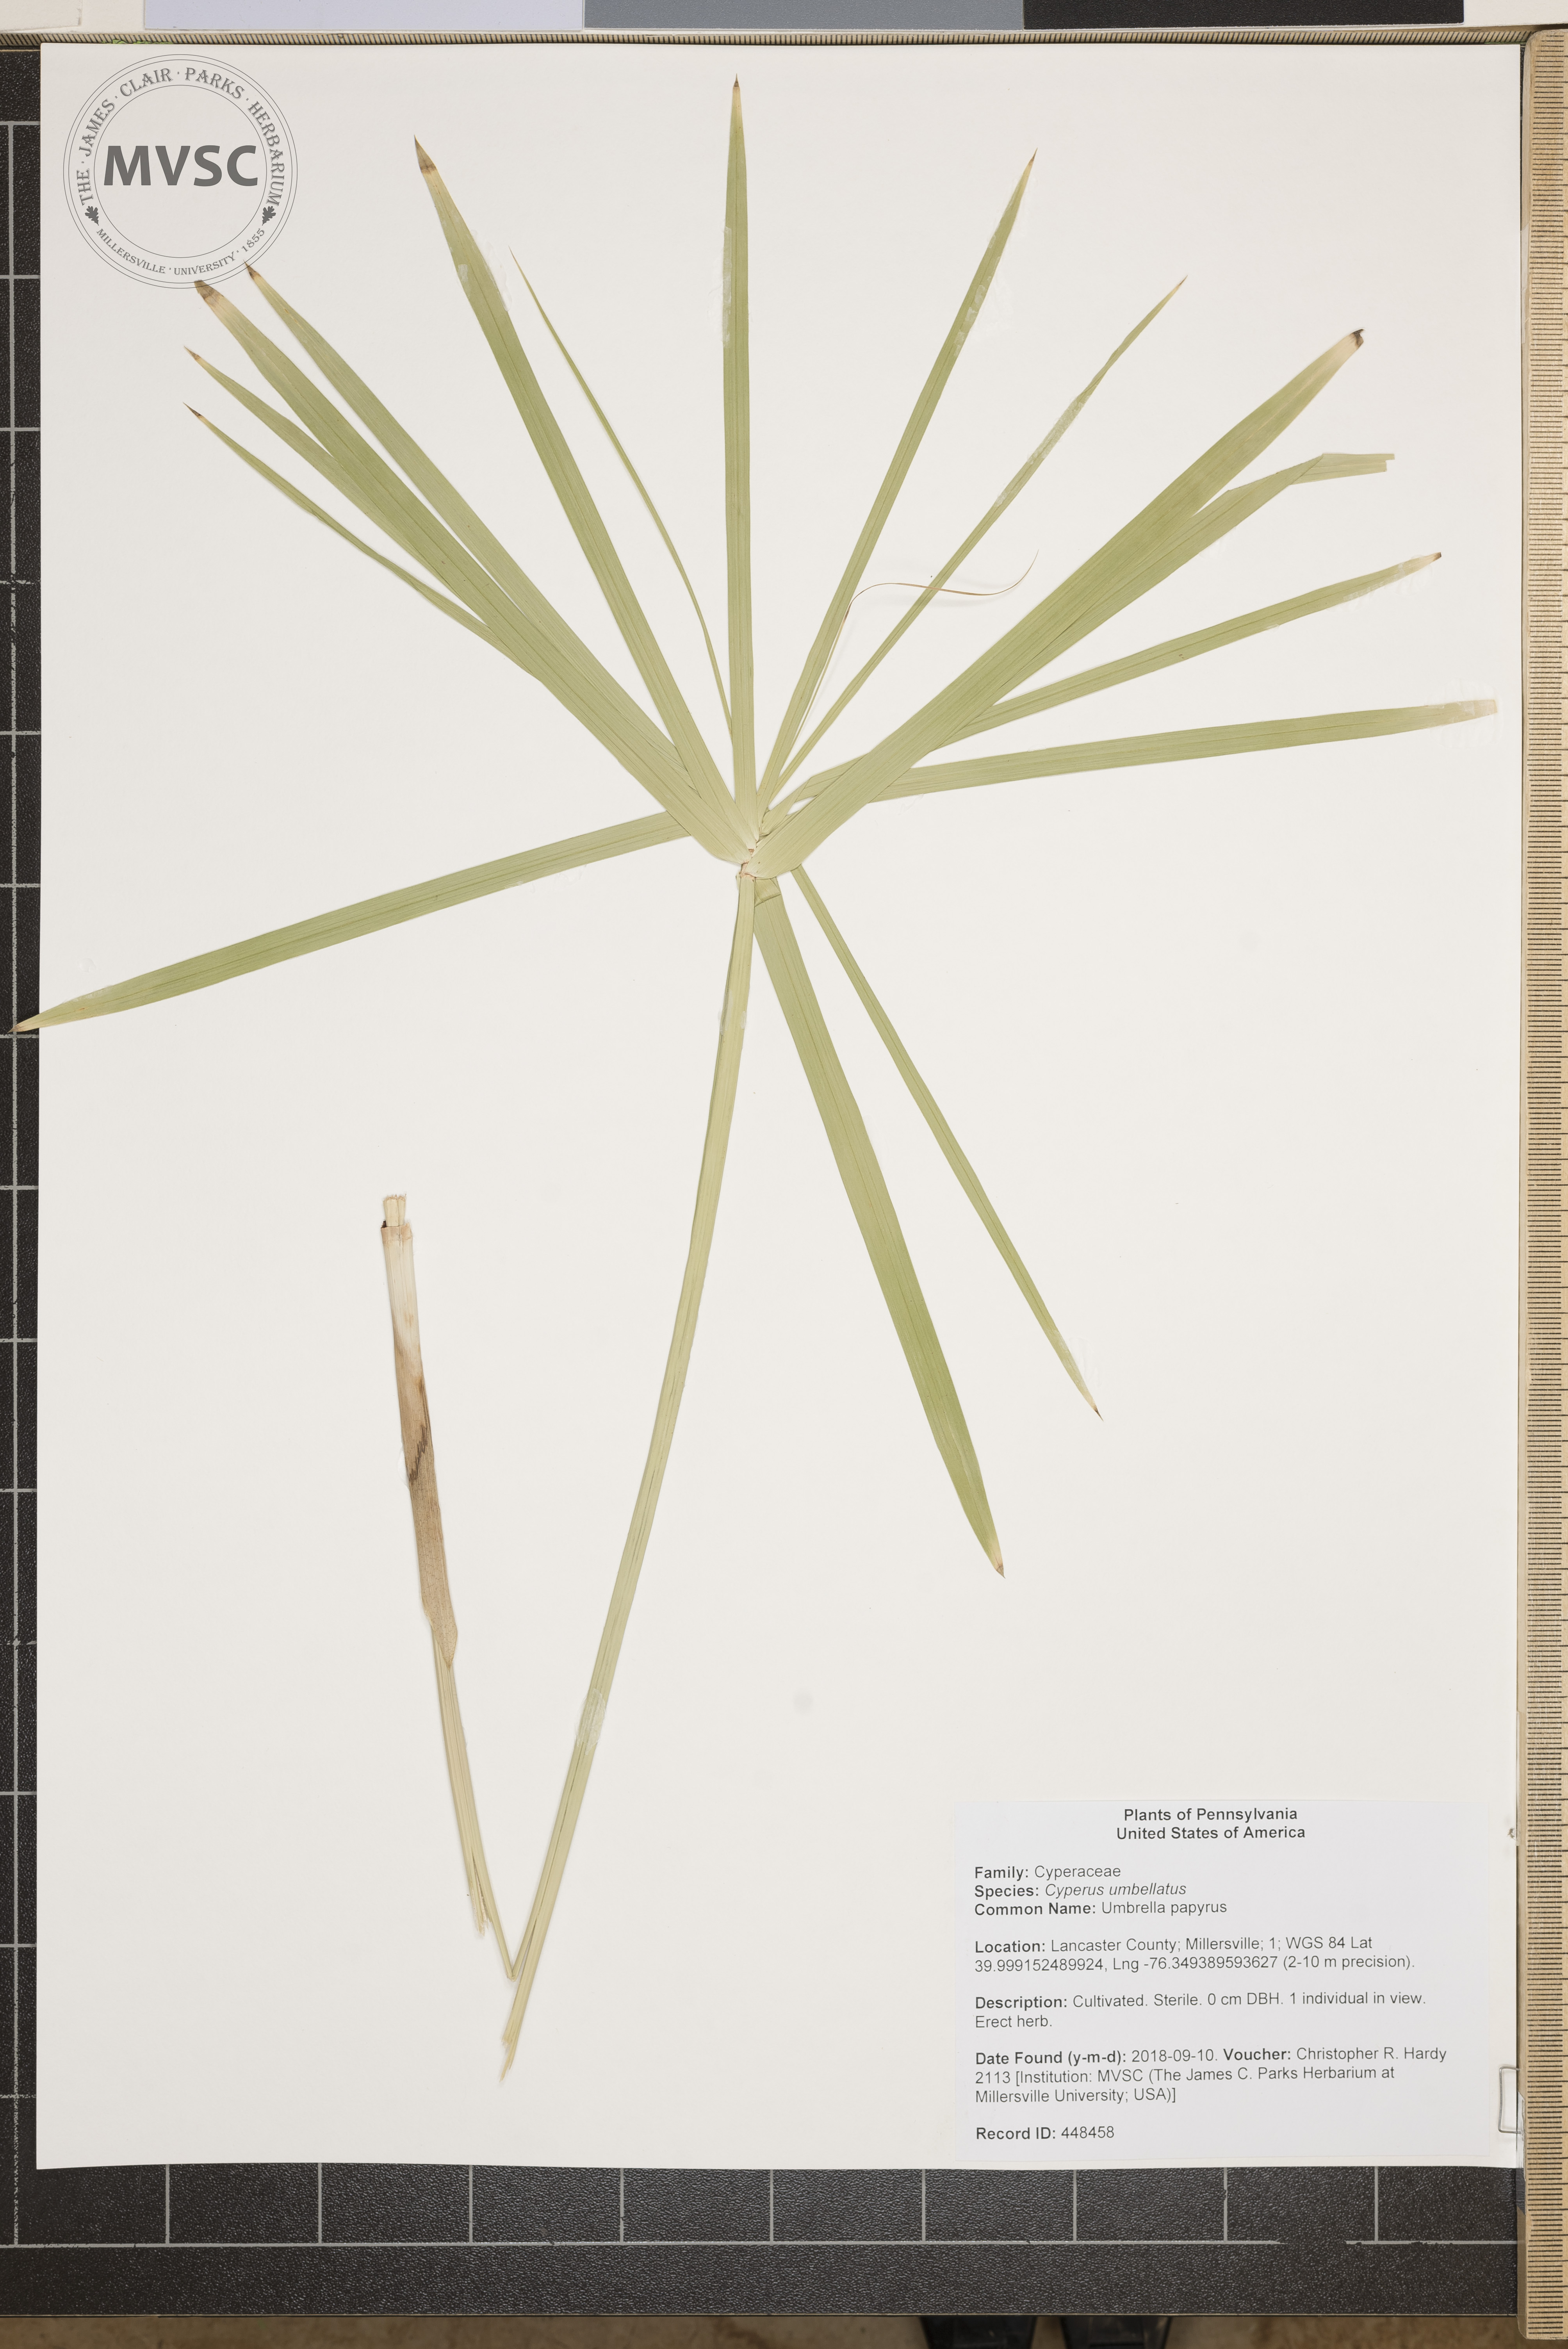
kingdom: Plantae
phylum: Tracheophyta
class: Liliopsida
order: Poales
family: Cyperaceae
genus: Cyperus
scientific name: Cyperus umbellatus
